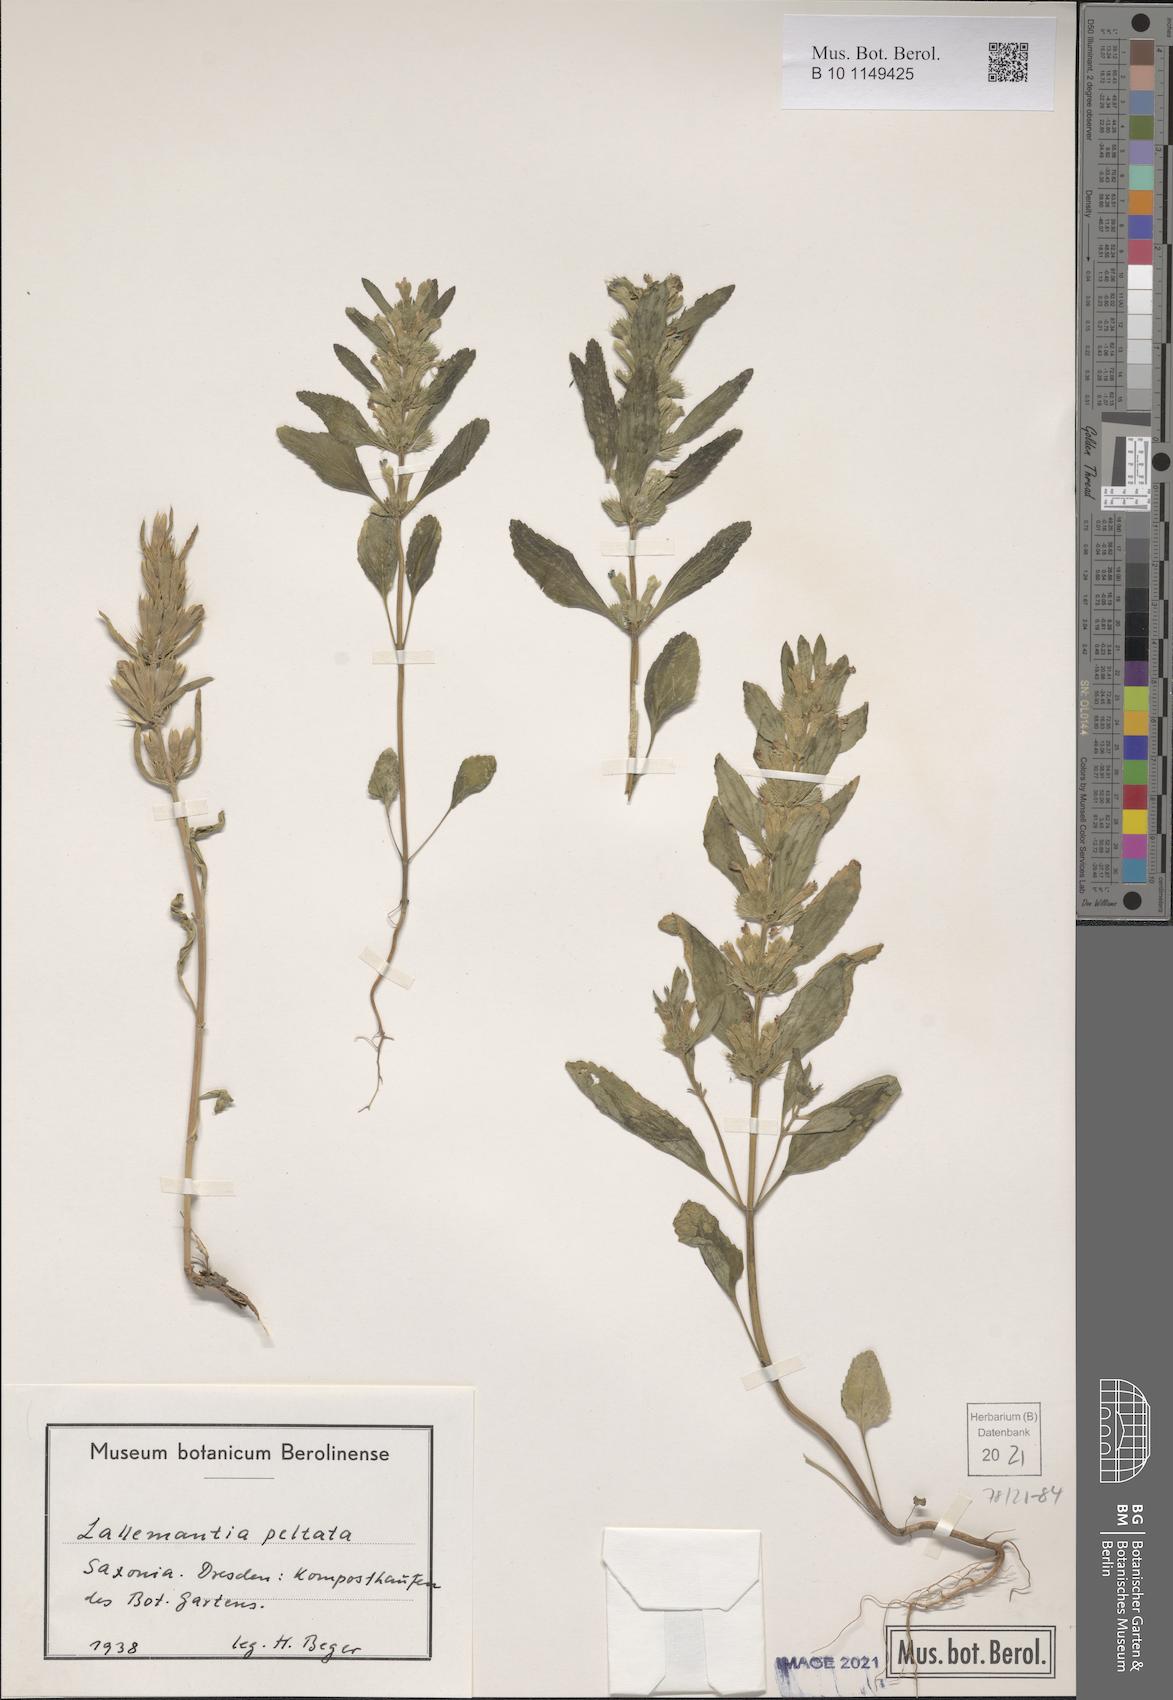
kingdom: Plantae
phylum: Tracheophyta
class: Magnoliopsida
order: Lamiales
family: Lamiaceae
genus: Lallemantia
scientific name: Lallemantia peltata
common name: Lion's heart
